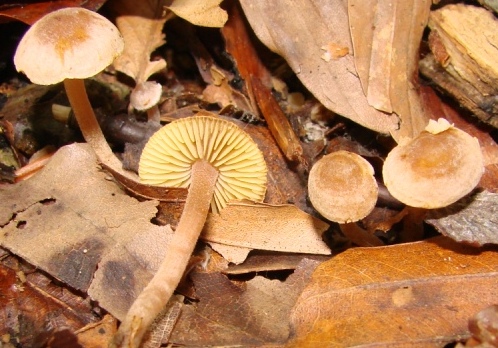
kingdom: Fungi
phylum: Basidiomycota
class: Agaricomycetes
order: Agaricales
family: Inocybaceae
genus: Inocybe
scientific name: Inocybe petiginosa
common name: liden trævlhat
